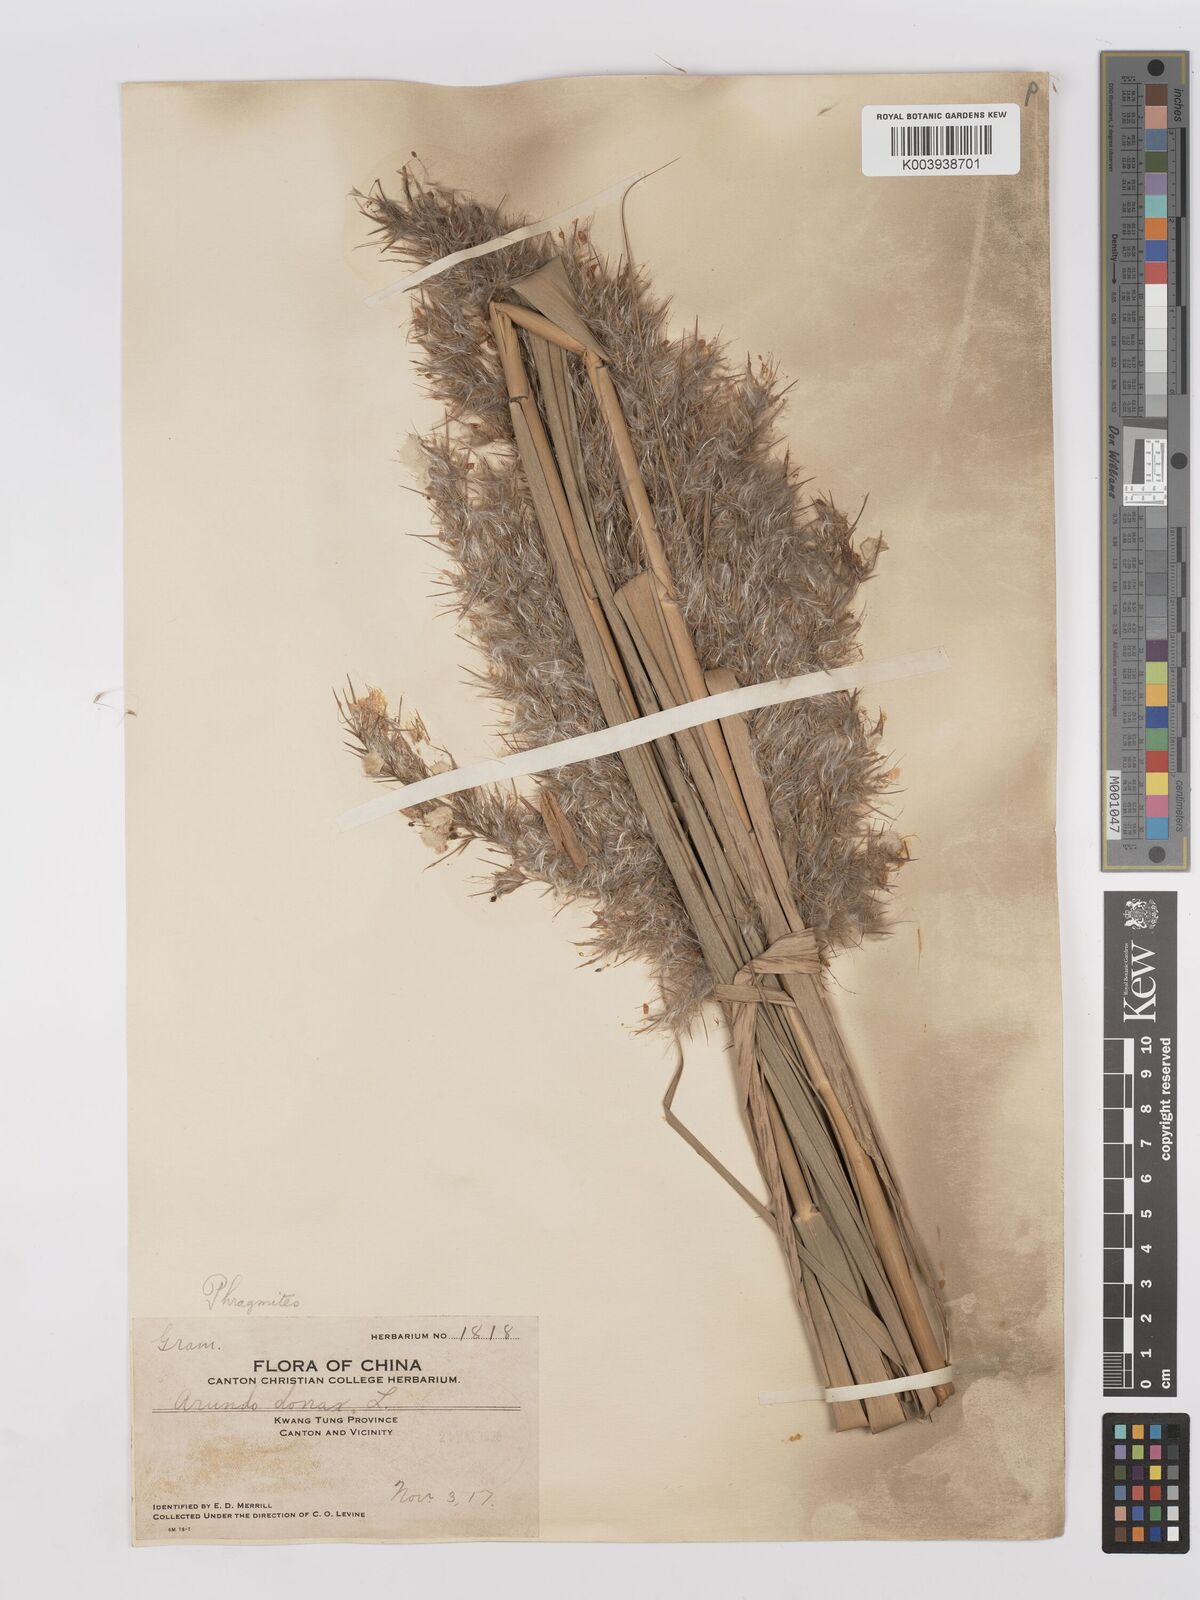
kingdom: Plantae
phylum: Tracheophyta
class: Liliopsida
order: Poales
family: Poaceae
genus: Phragmites
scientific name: Phragmites australis
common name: Common reed
